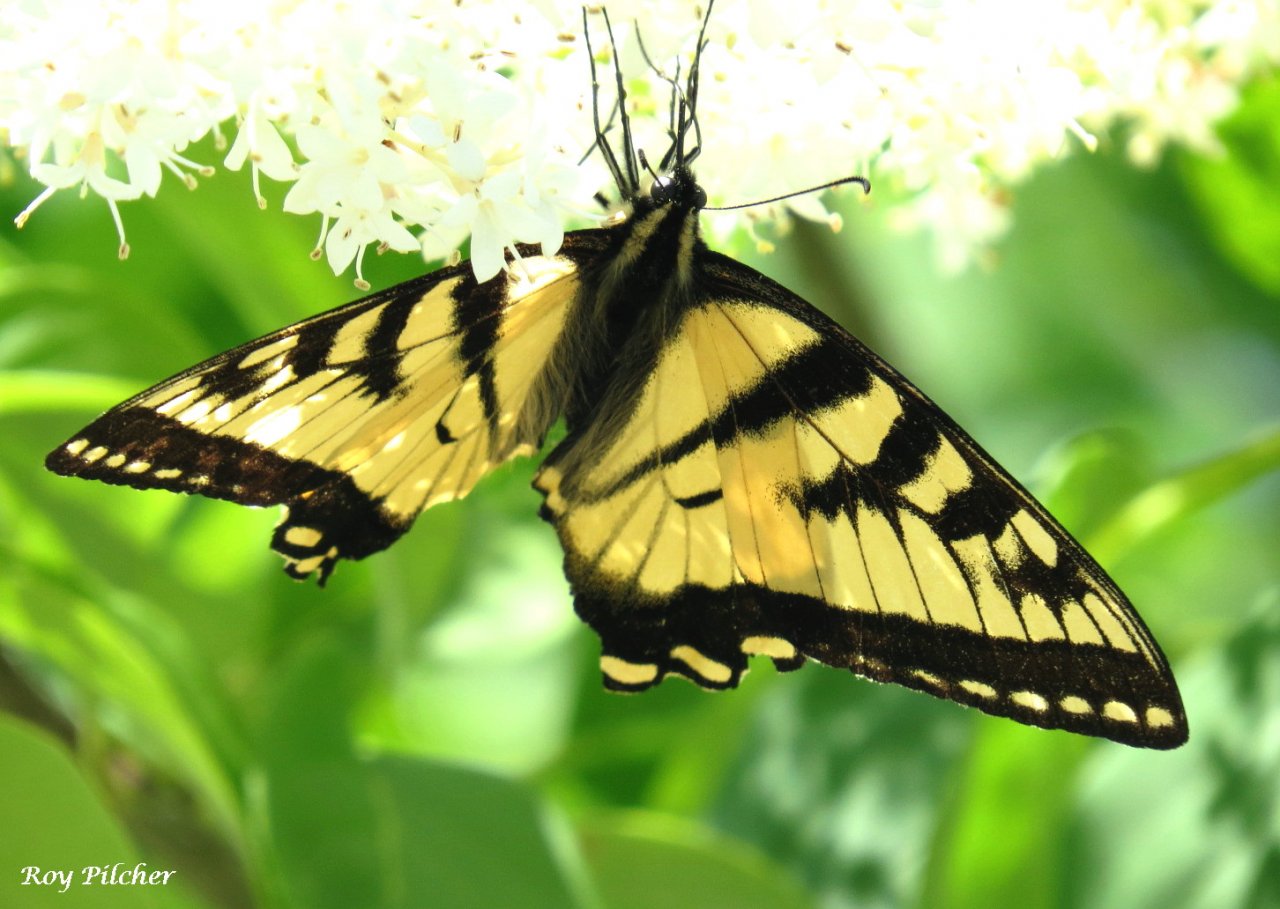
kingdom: Animalia
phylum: Arthropoda
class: Insecta
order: Lepidoptera
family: Papilionidae
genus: Pterourus
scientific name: Pterourus glaucus
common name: Eastern Tiger Swallowtail
